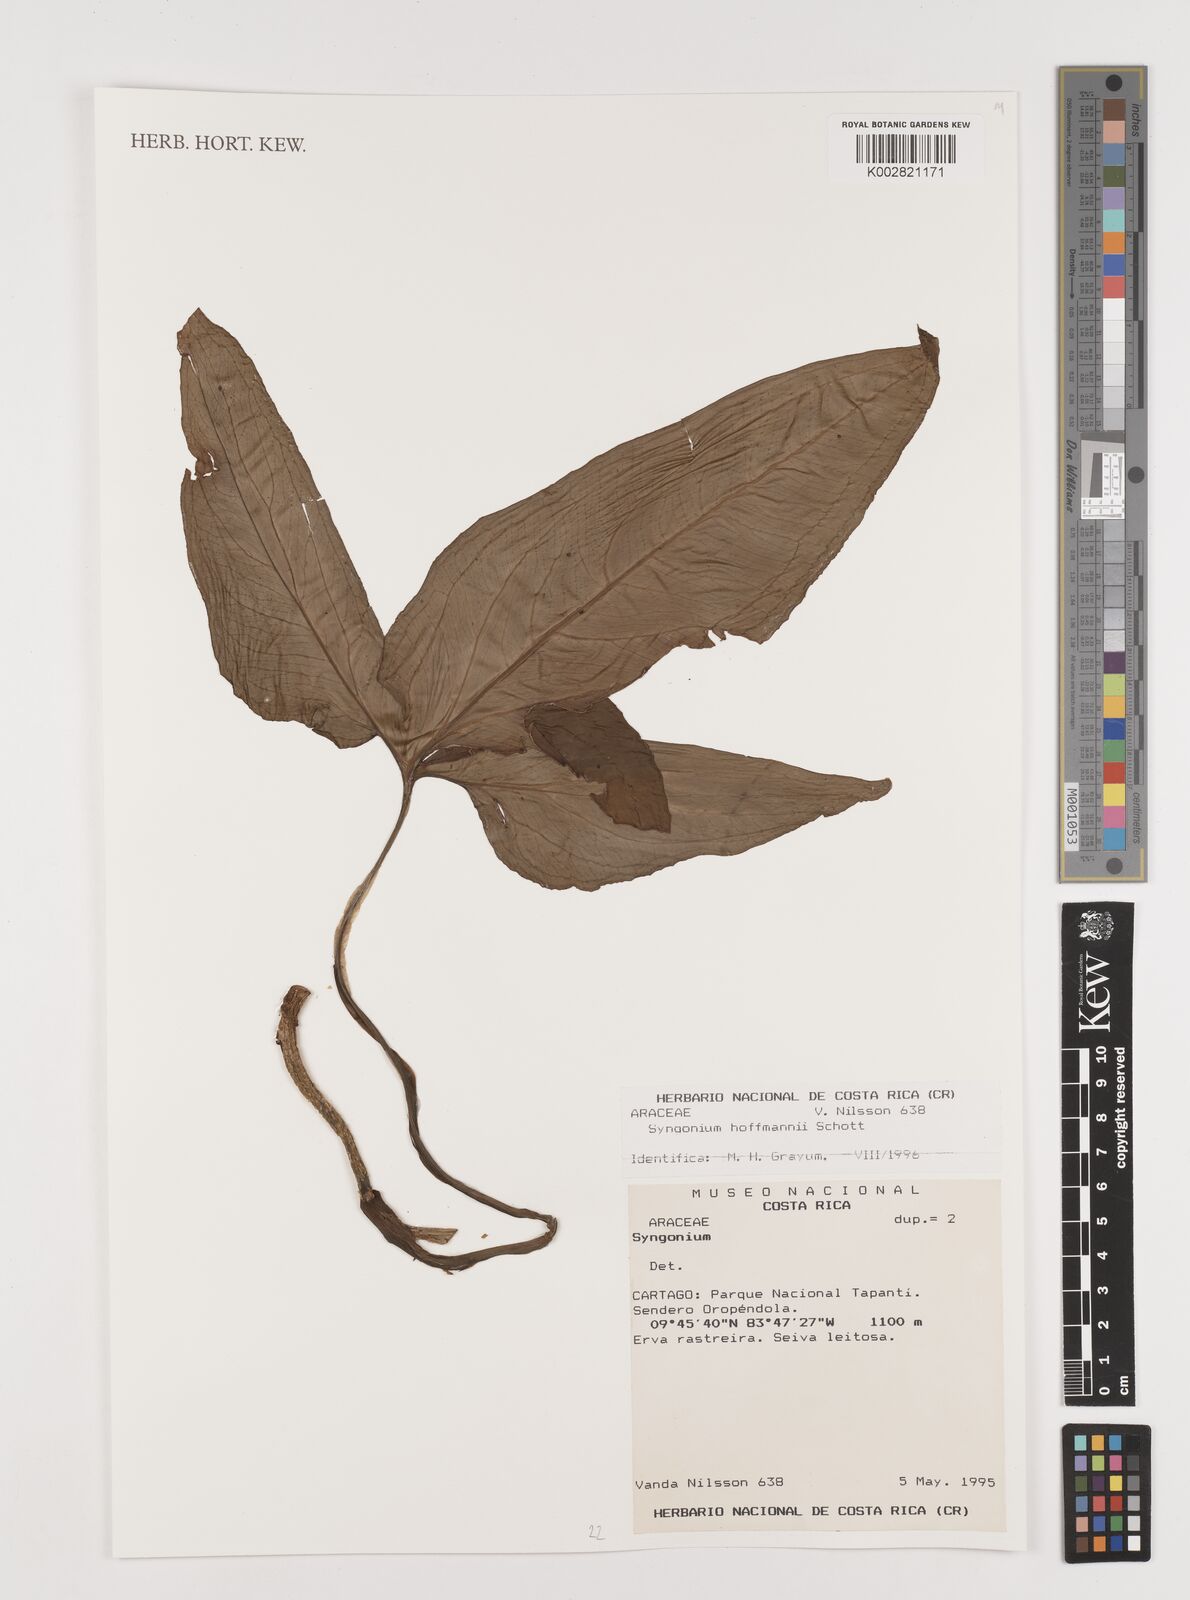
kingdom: Plantae
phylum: Tracheophyta
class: Liliopsida
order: Alismatales
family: Araceae
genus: Syngonium
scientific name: Syngonium hoffmannii
